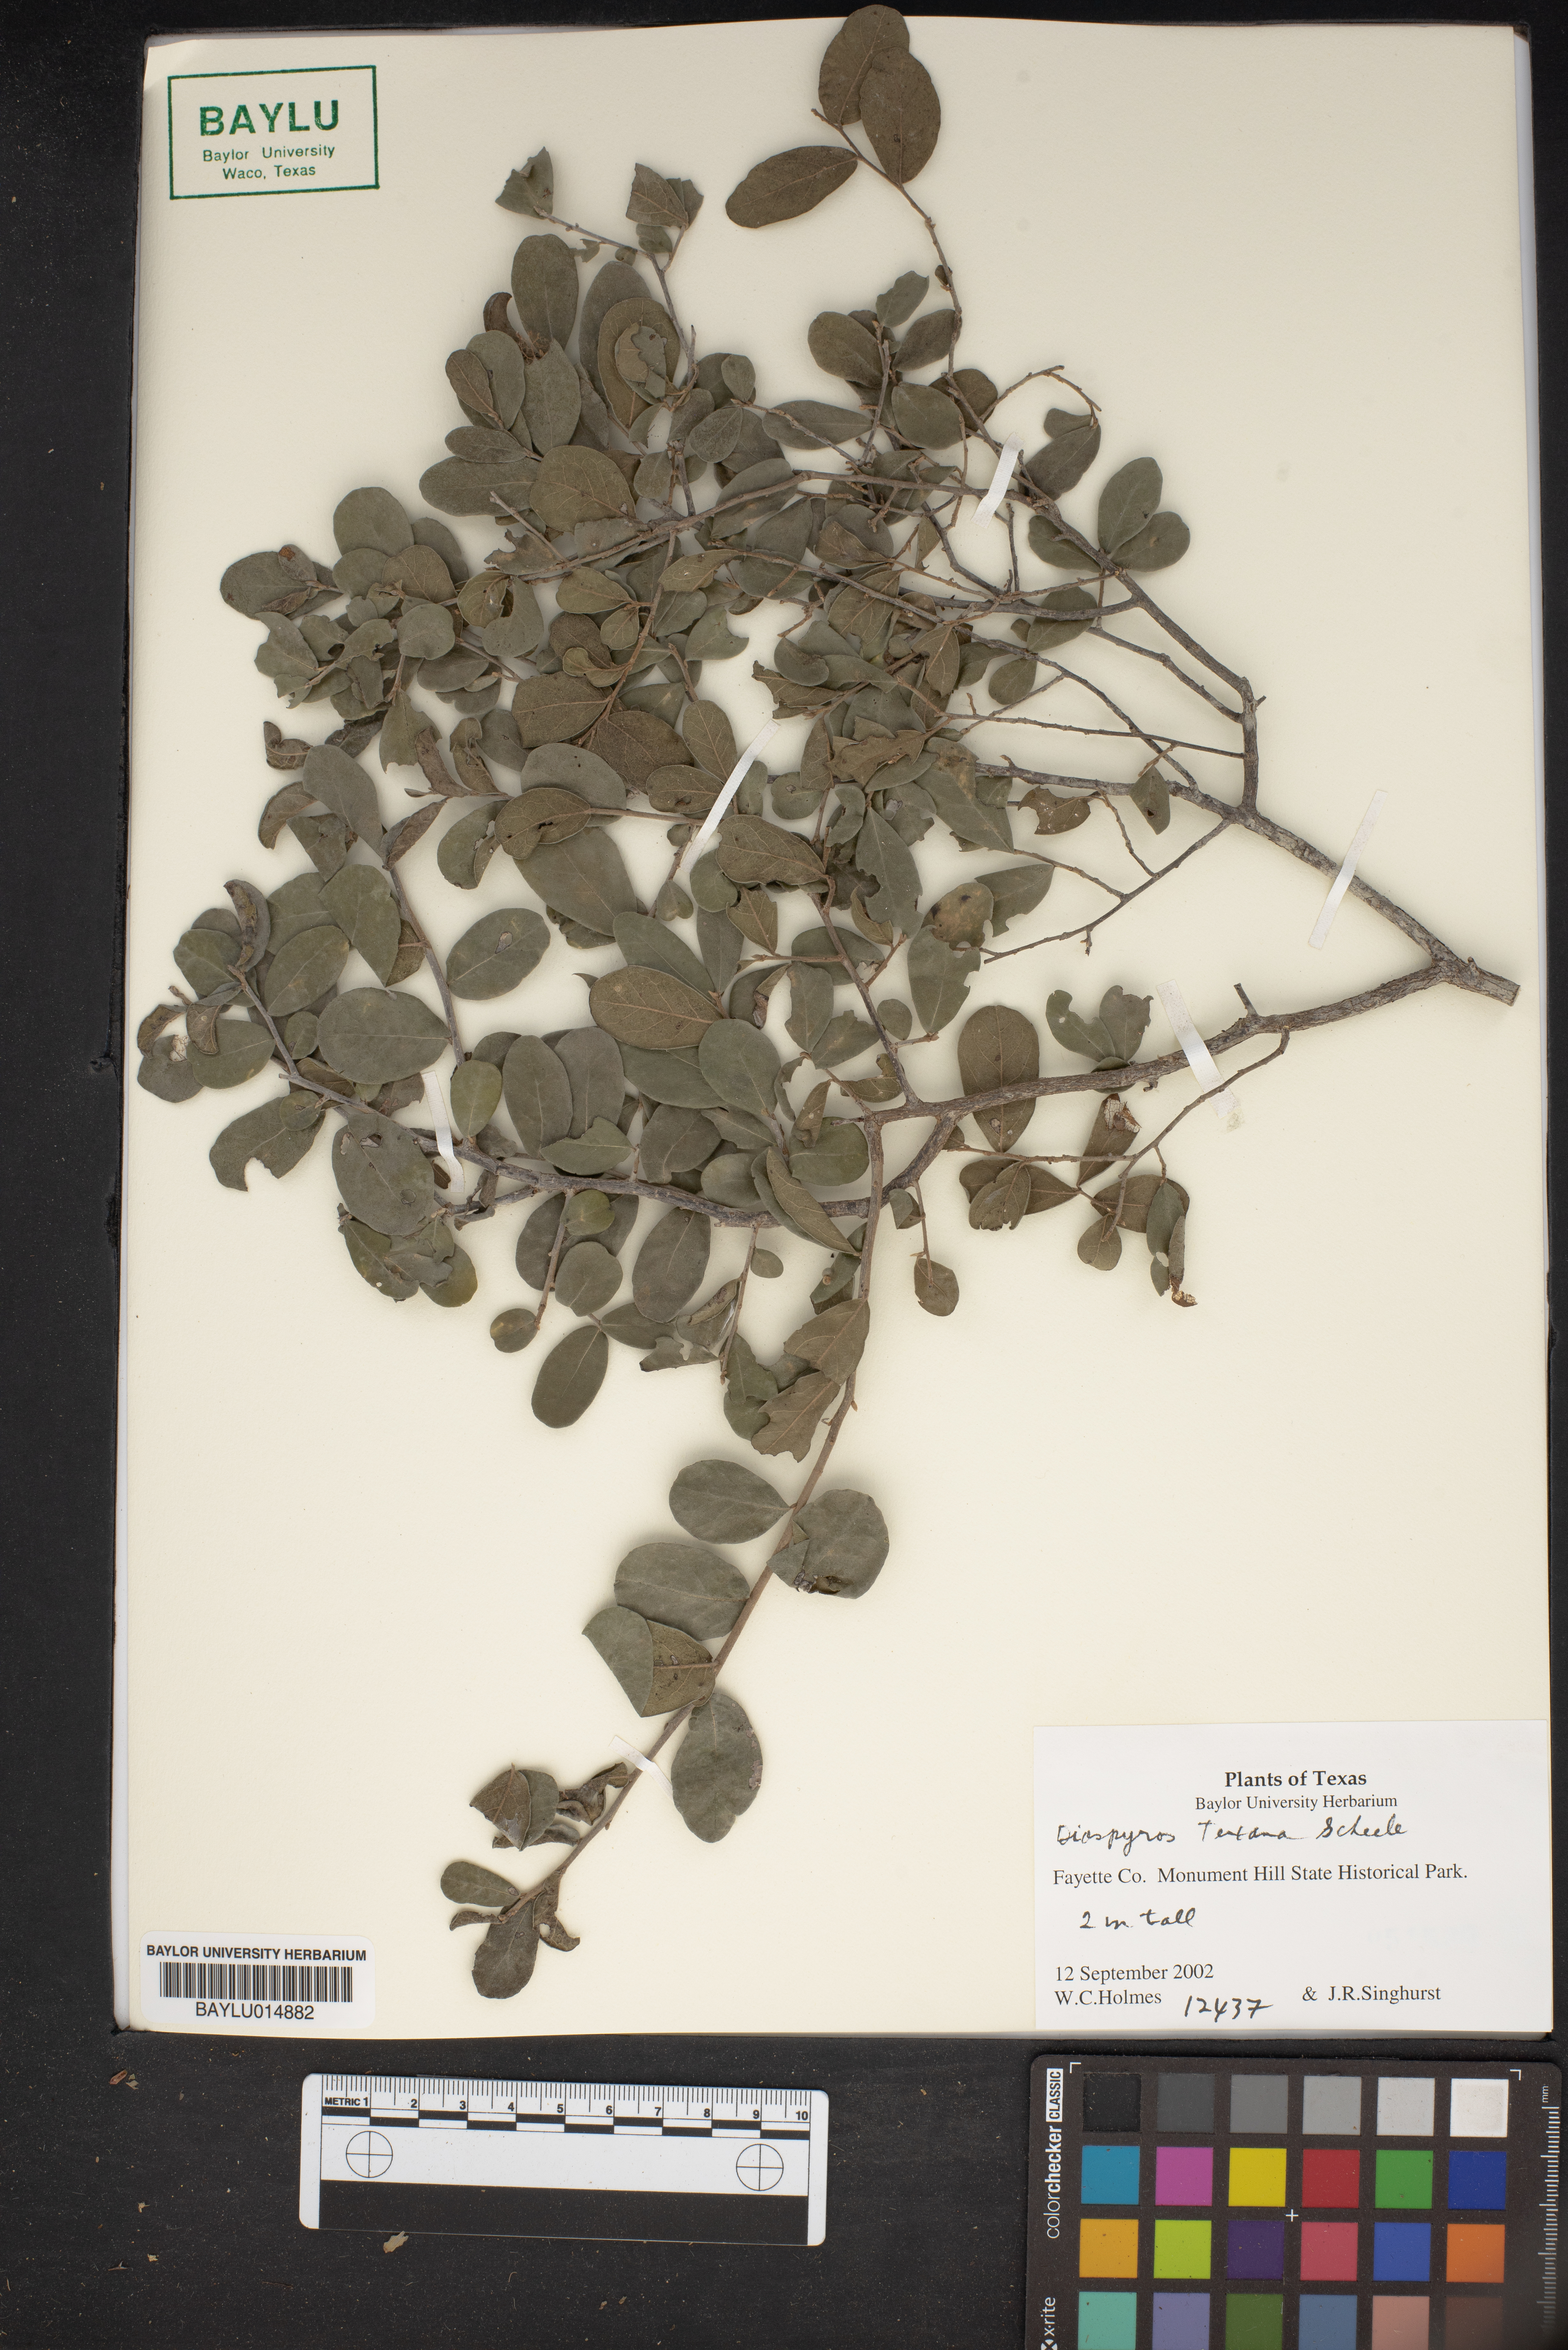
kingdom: Plantae
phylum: Tracheophyta
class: Magnoliopsida
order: Ericales
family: Ebenaceae
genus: Diospyros
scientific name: Diospyros texana
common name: Texas persimmon
